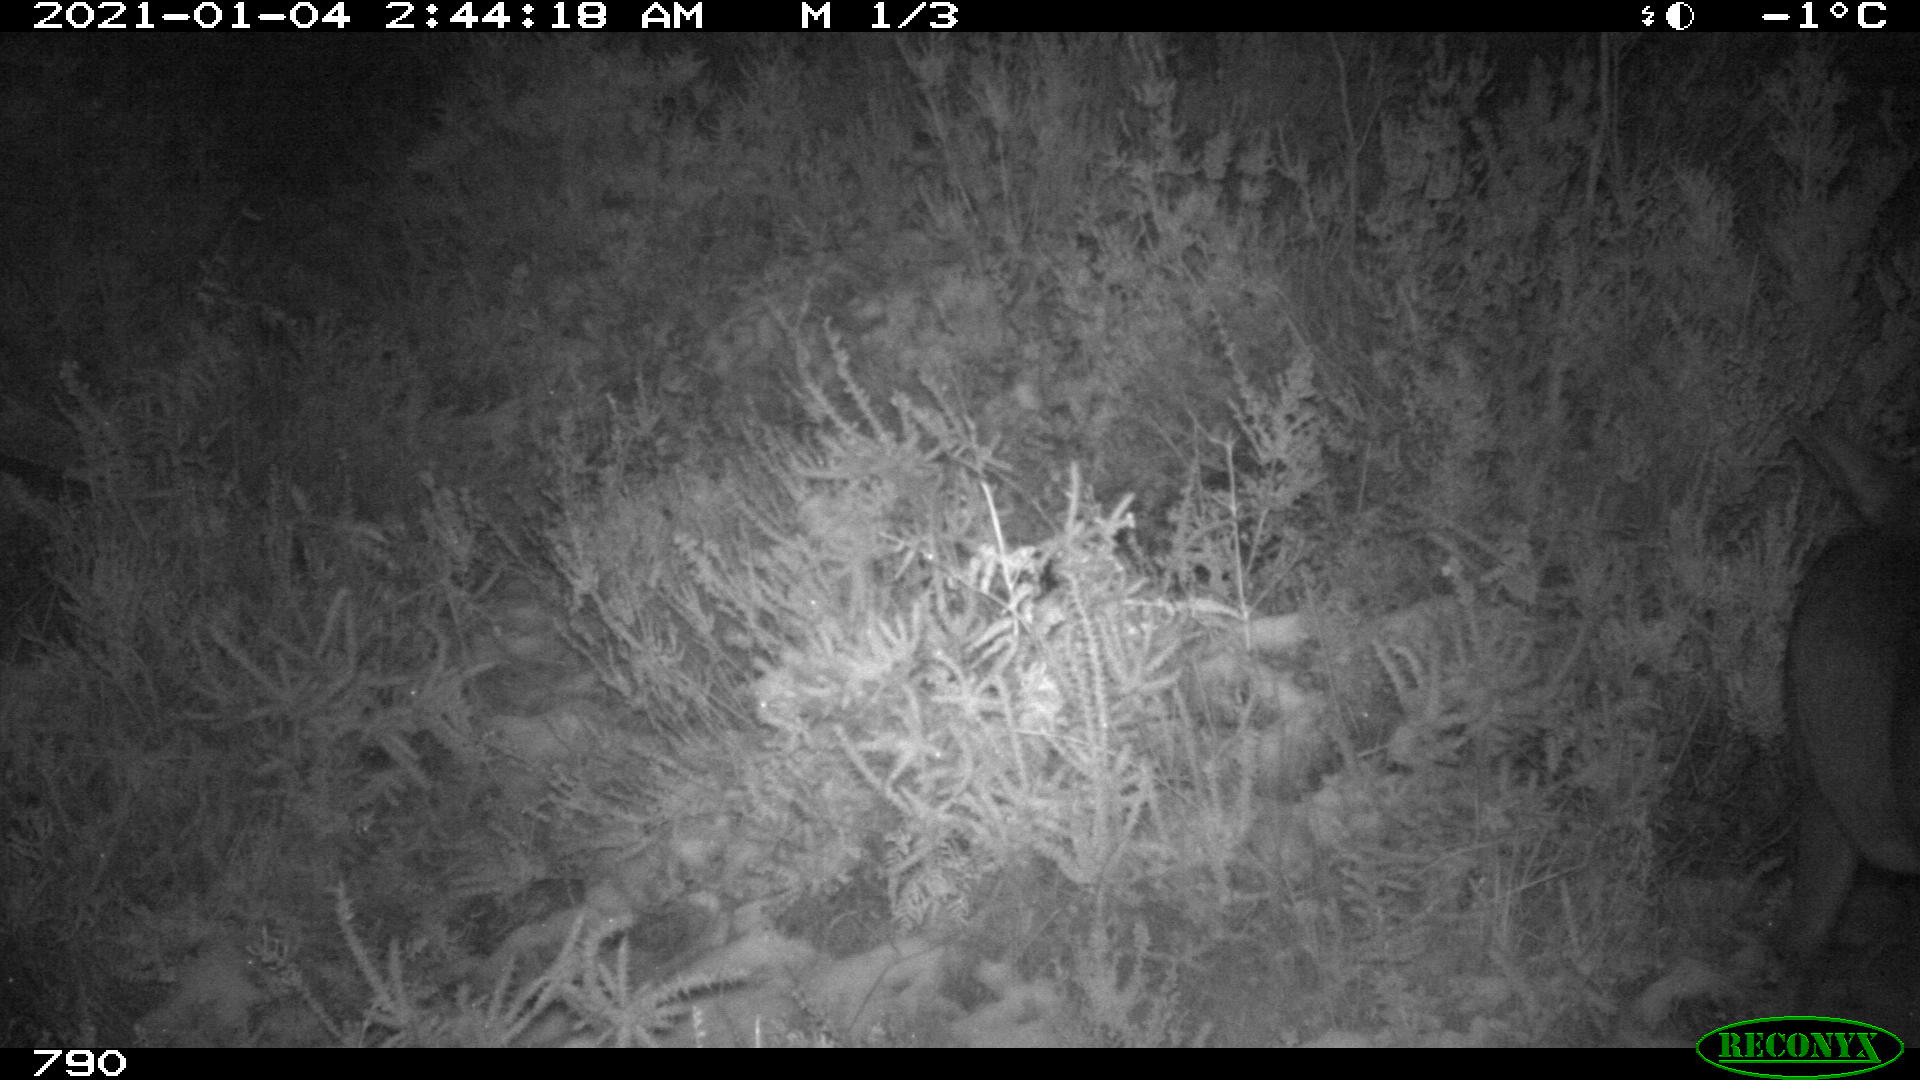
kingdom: Animalia
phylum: Chordata
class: Mammalia
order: Artiodactyla
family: Cervidae
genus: Capreolus
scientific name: Capreolus capreolus
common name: Western roe deer
